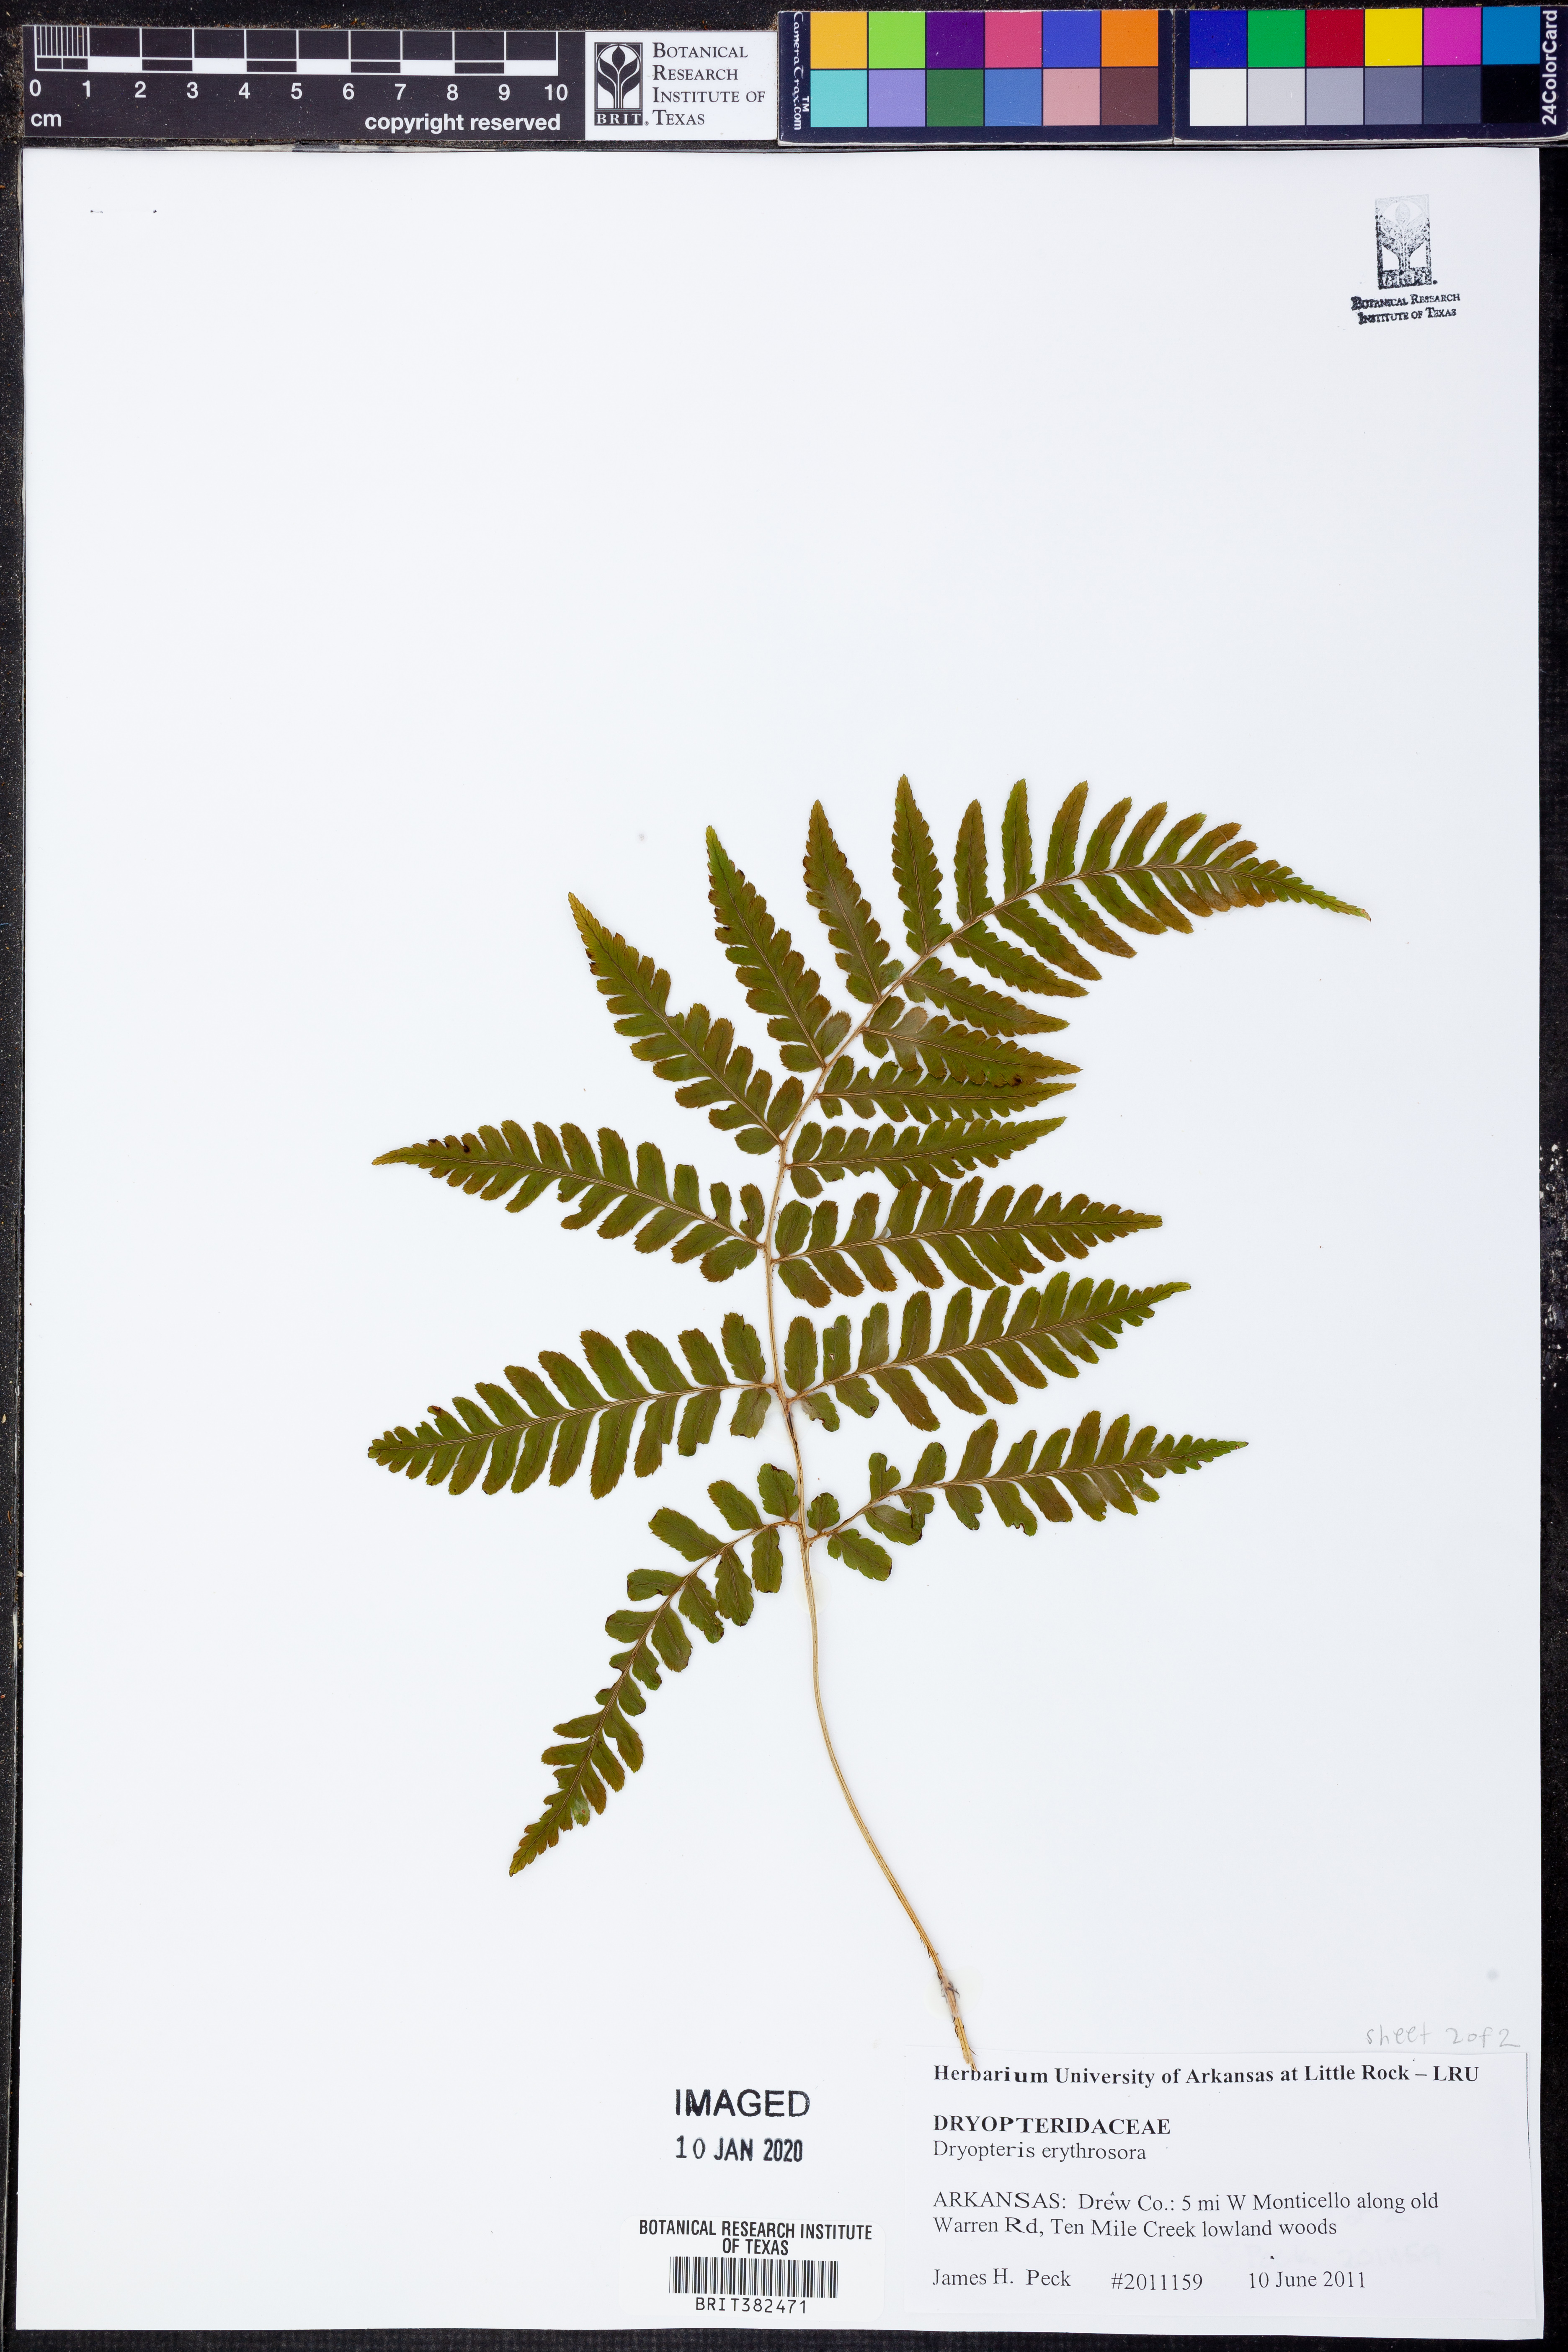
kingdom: Plantae
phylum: Tracheophyta
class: Polypodiopsida
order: Polypodiales
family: Dryopteridaceae
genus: Dryopteris
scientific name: Dryopteris erythrosora
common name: Autumn fern
